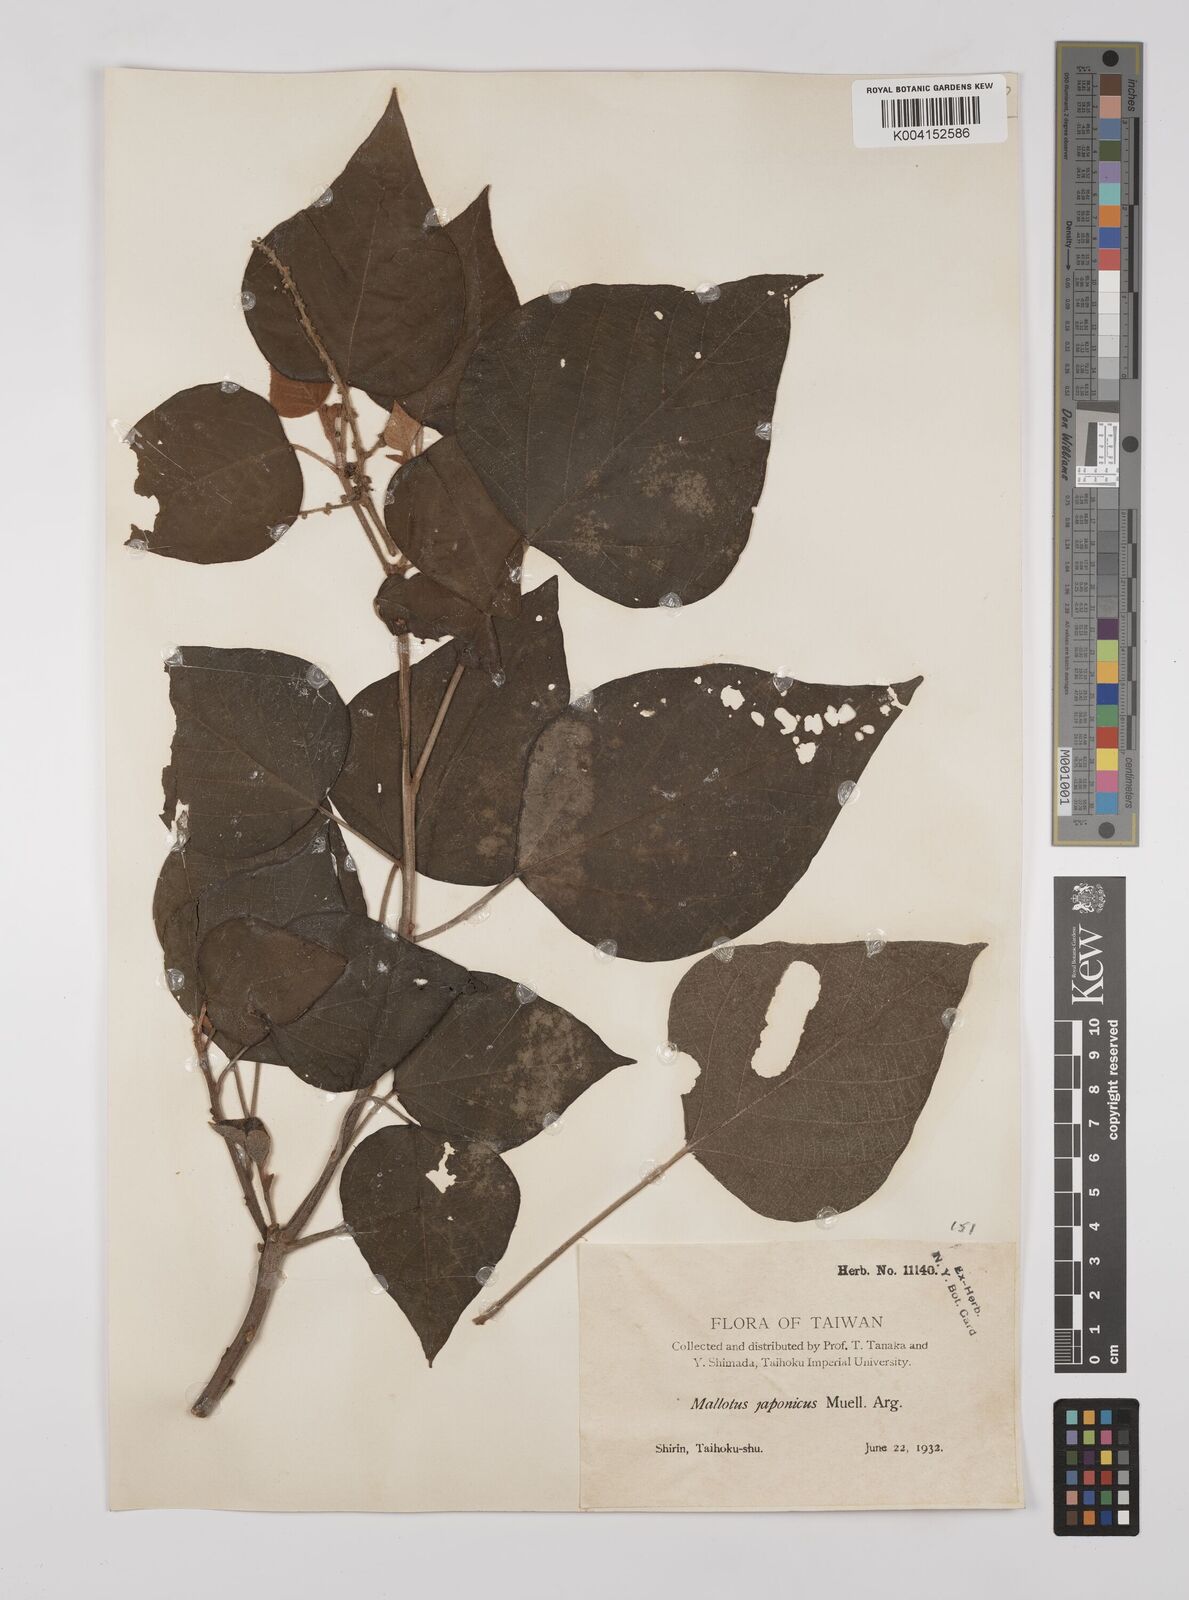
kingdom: Plantae
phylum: Tracheophyta
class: Magnoliopsida
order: Malpighiales
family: Euphorbiaceae
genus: Mallotus
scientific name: Mallotus japonicus
